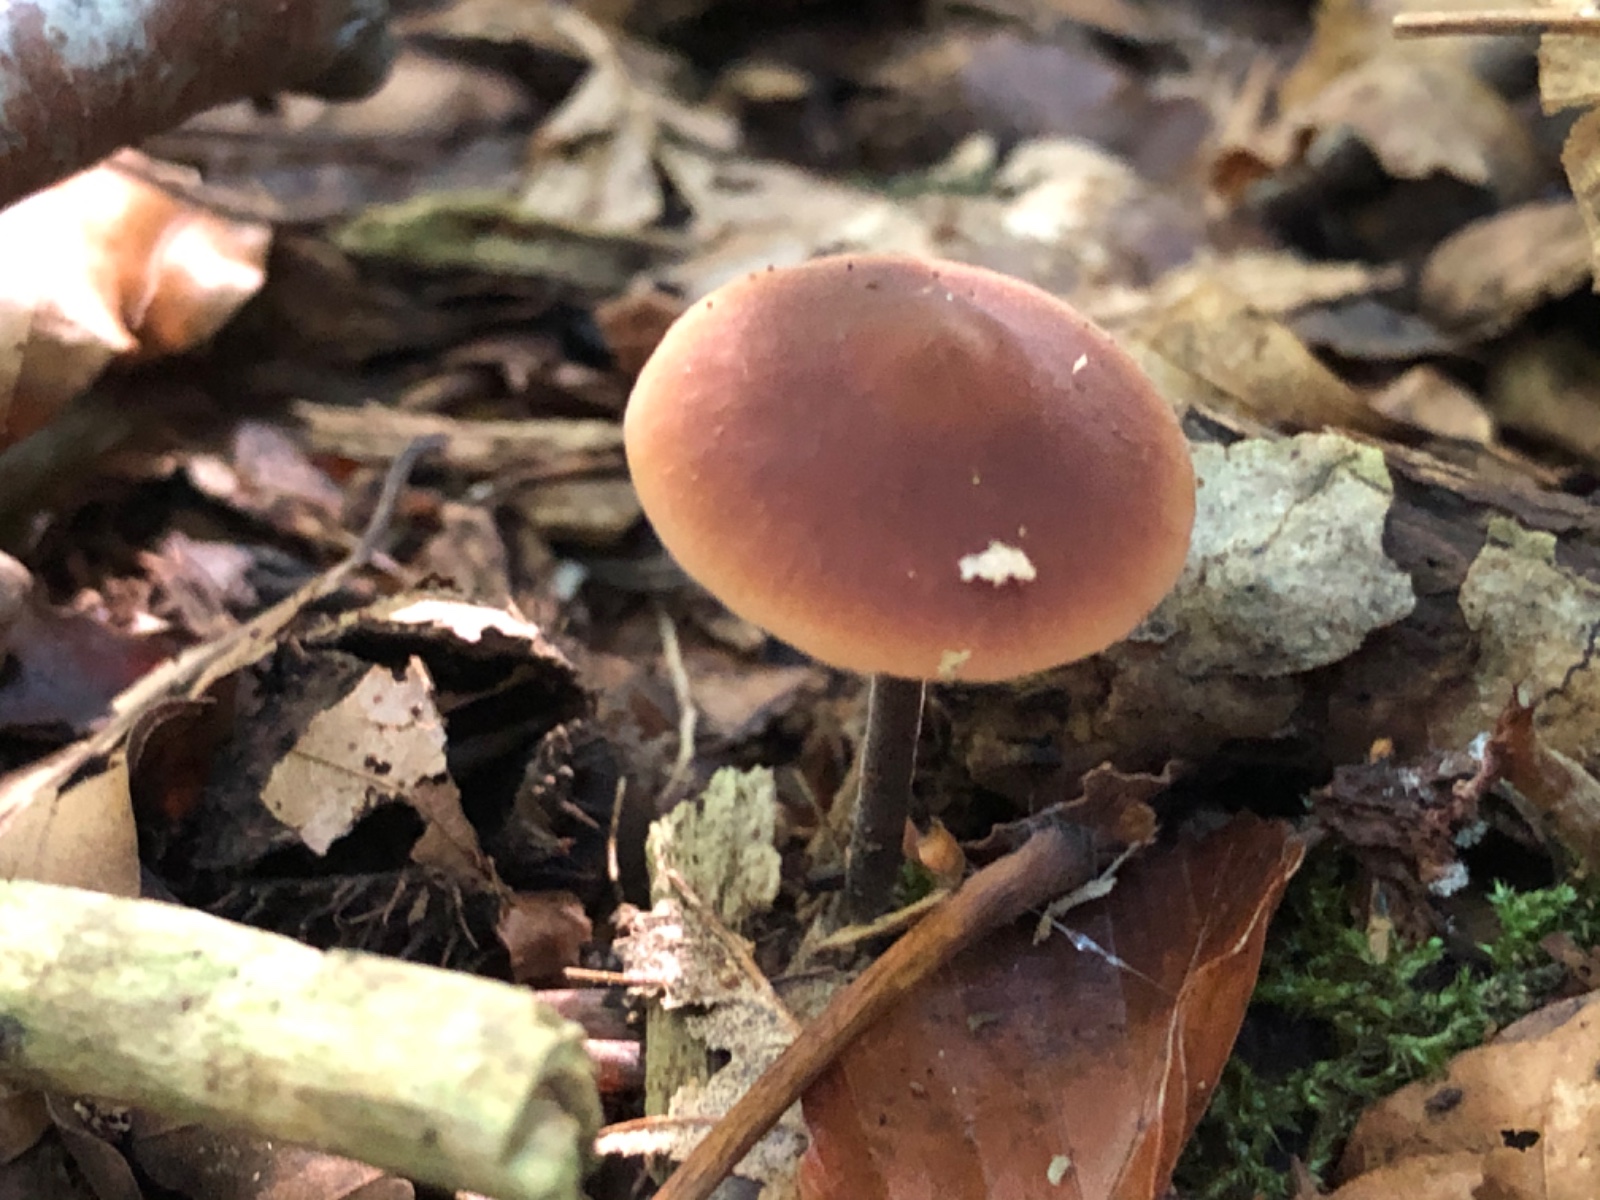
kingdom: Fungi
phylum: Basidiomycota
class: Agaricomycetes
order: Agaricales
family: Macrocystidiaceae
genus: Macrocystidia
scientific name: Macrocystidia cucumis
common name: agurkehat
